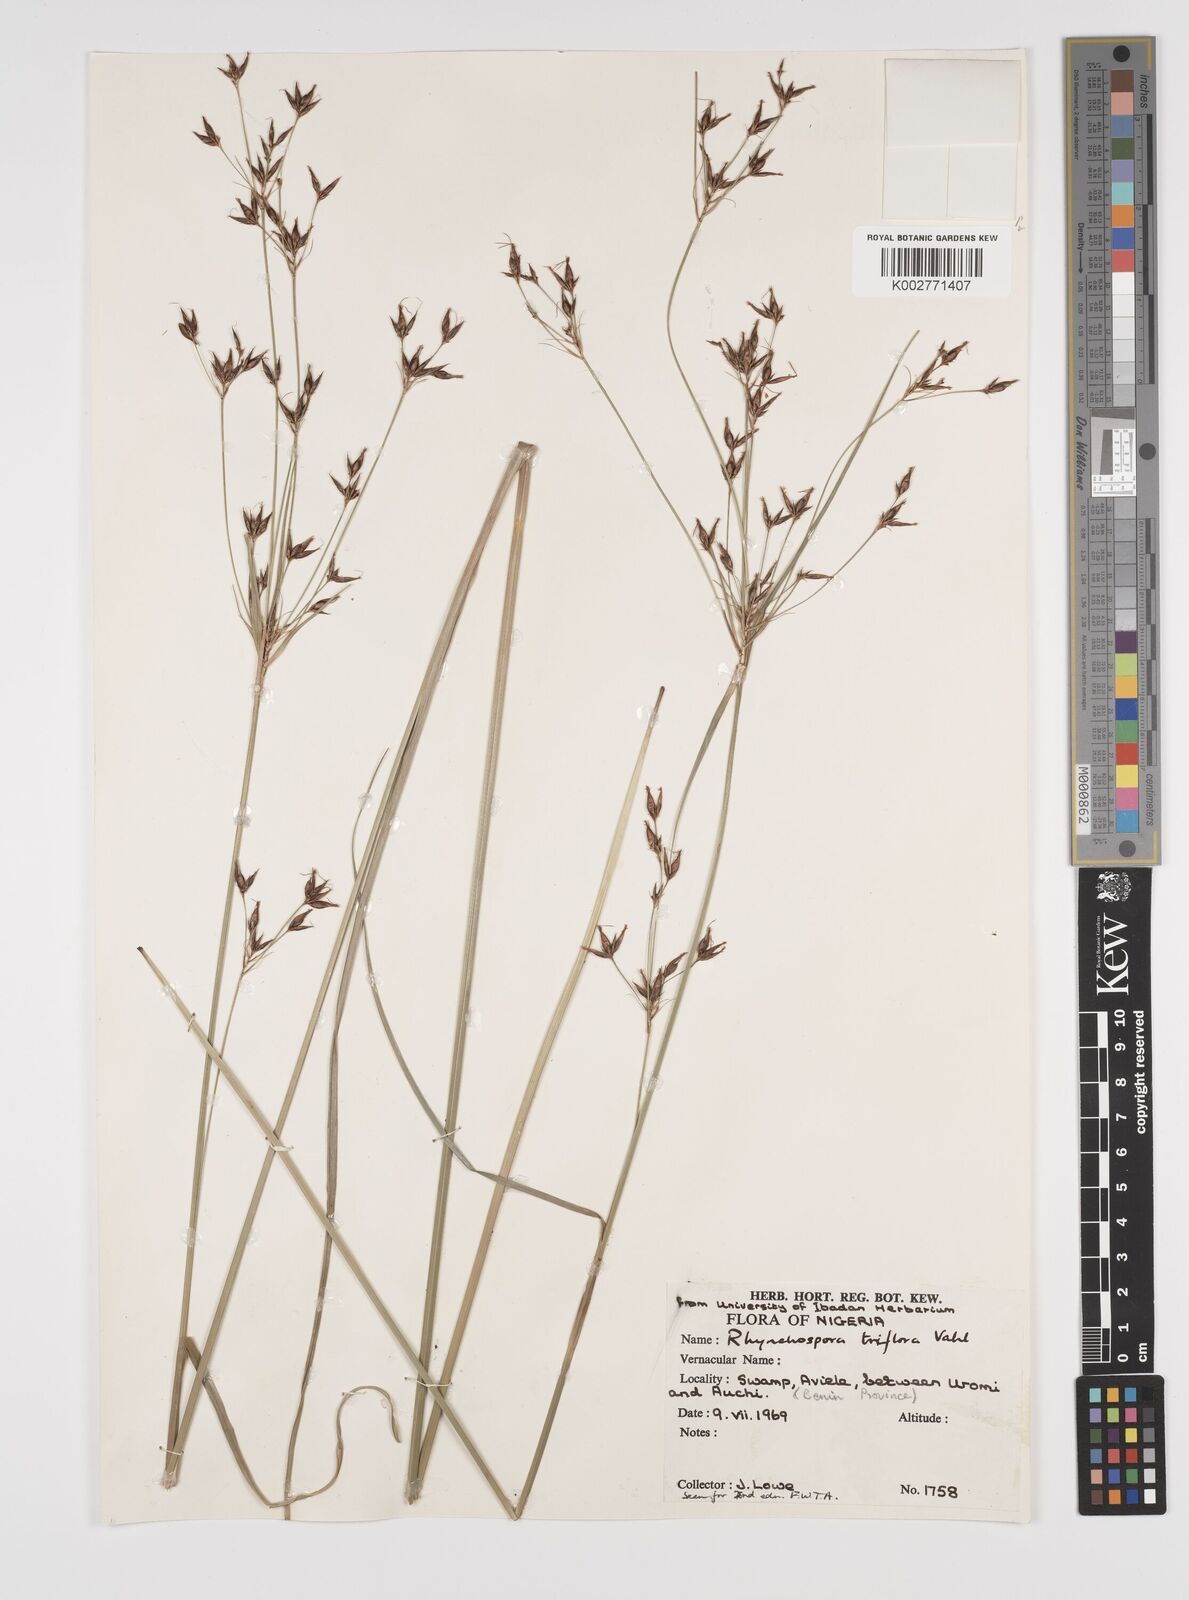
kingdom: Plantae
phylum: Tracheophyta
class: Liliopsida
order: Poales
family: Cyperaceae
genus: Rhynchospora
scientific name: Rhynchospora triflora
